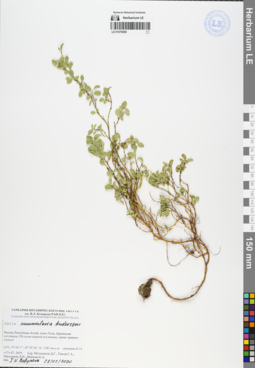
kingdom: Plantae
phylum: Tracheophyta
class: Magnoliopsida
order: Malpighiales
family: Salicaceae
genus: Salix
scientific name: Salix nummularia
